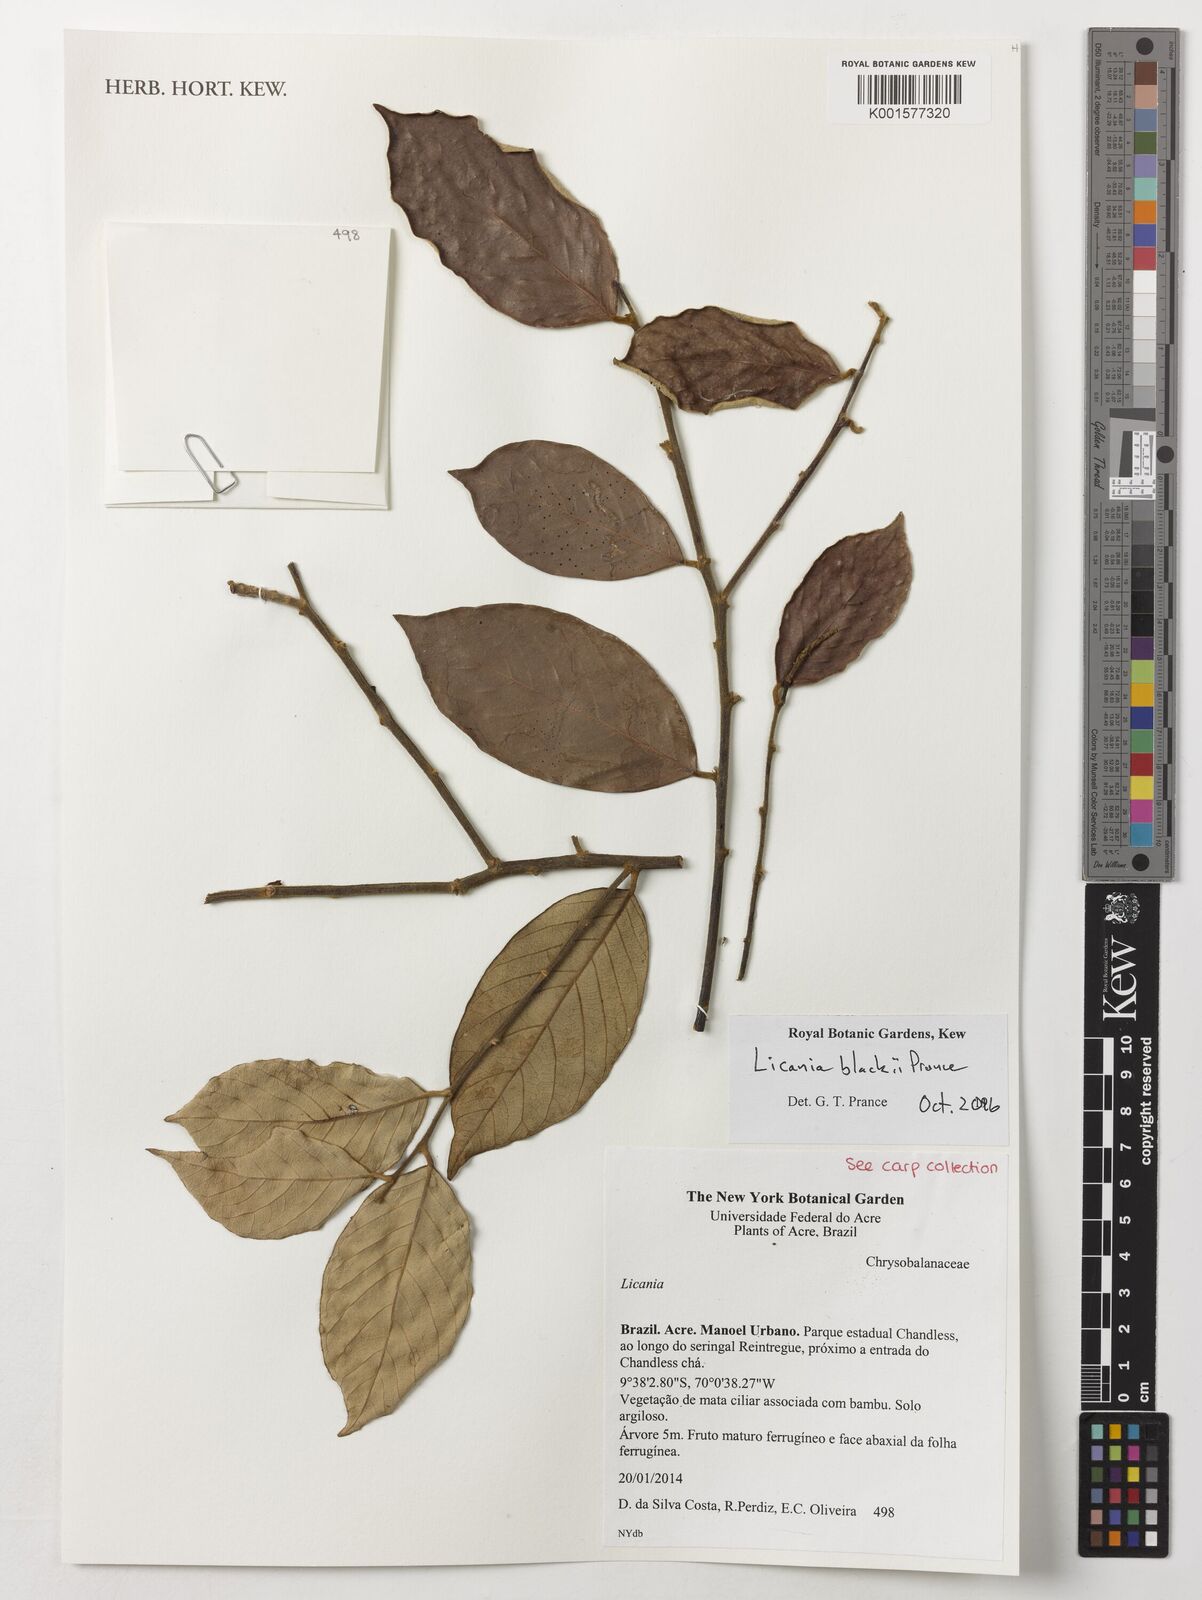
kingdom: Plantae
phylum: Tracheophyta
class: Magnoliopsida
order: Malpighiales
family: Chrysobalanaceae
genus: Licania
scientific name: Licania blackii
